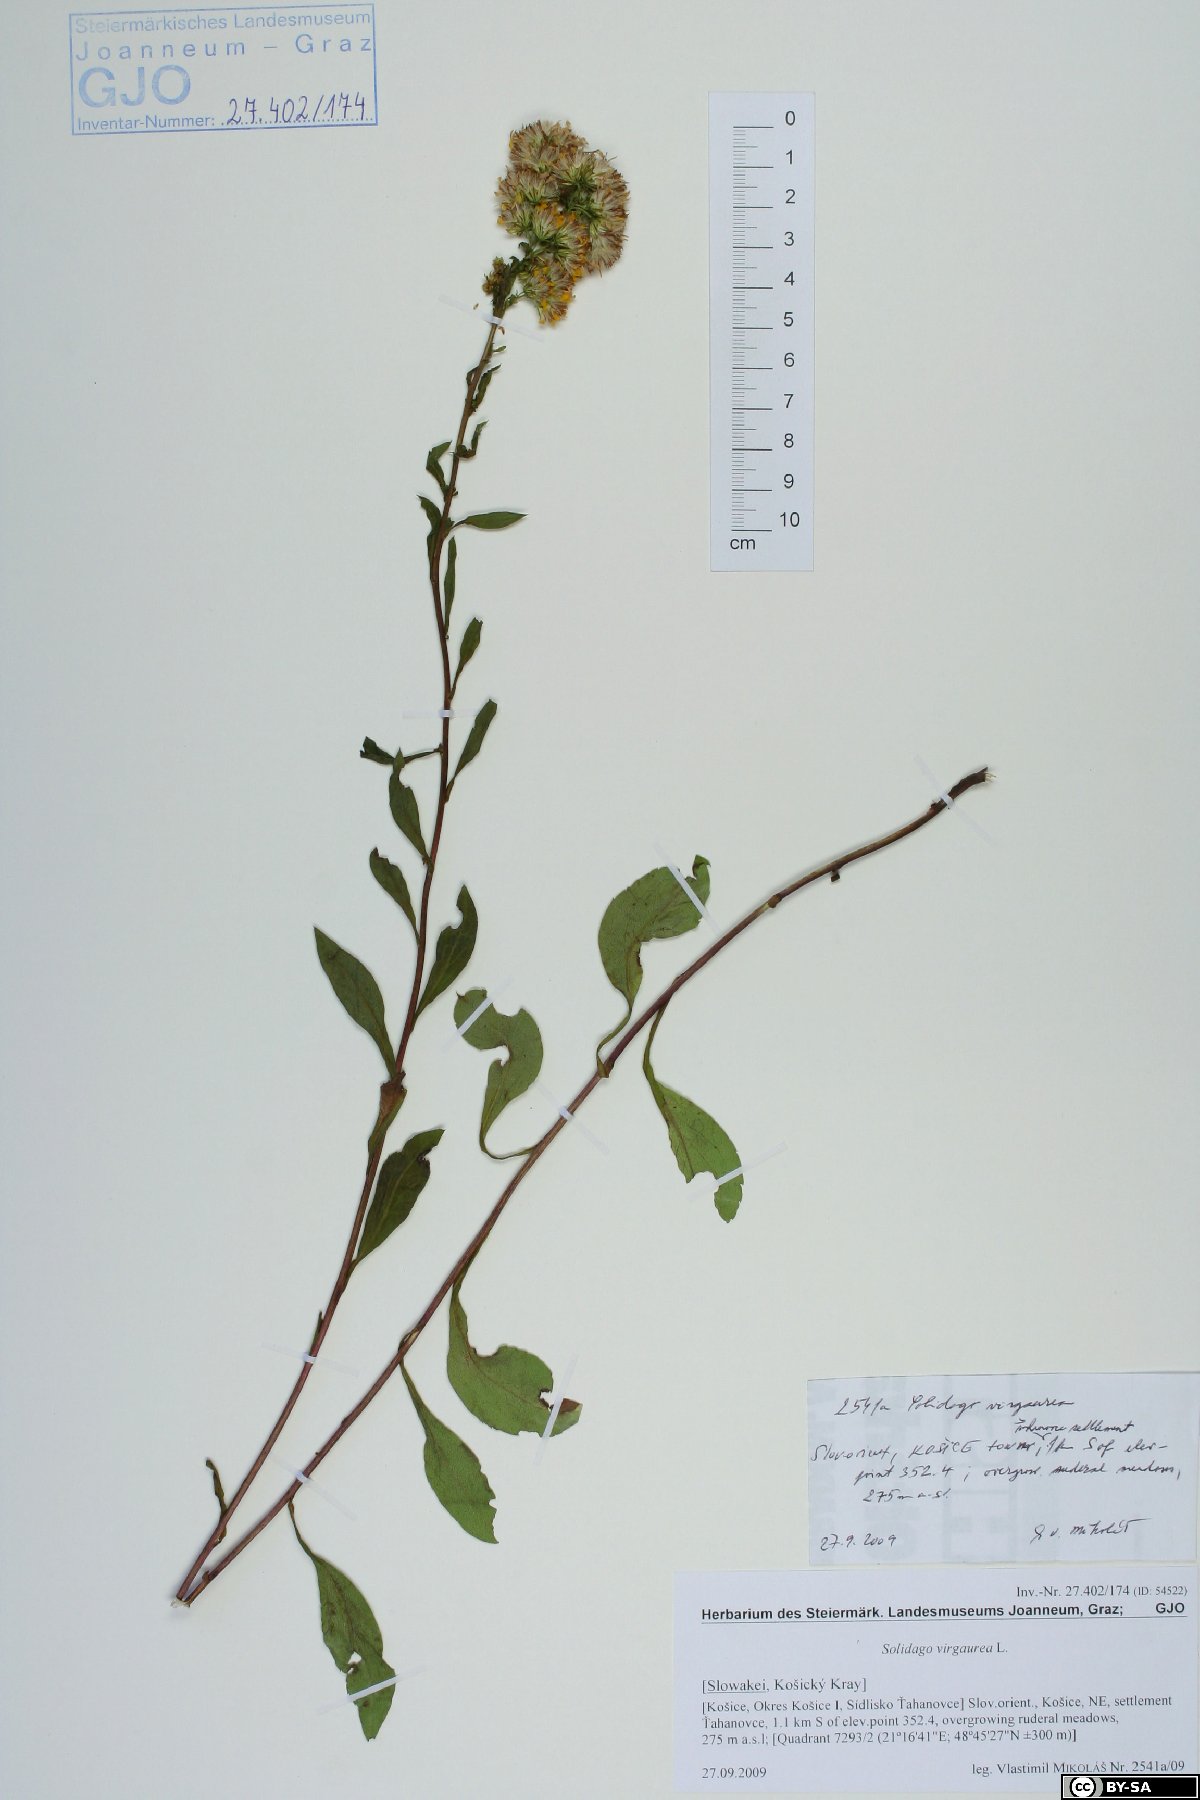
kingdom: Plantae
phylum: Tracheophyta
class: Magnoliopsida
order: Asterales
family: Asteraceae
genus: Solidago
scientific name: Solidago virgaurea
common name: Goldenrod
